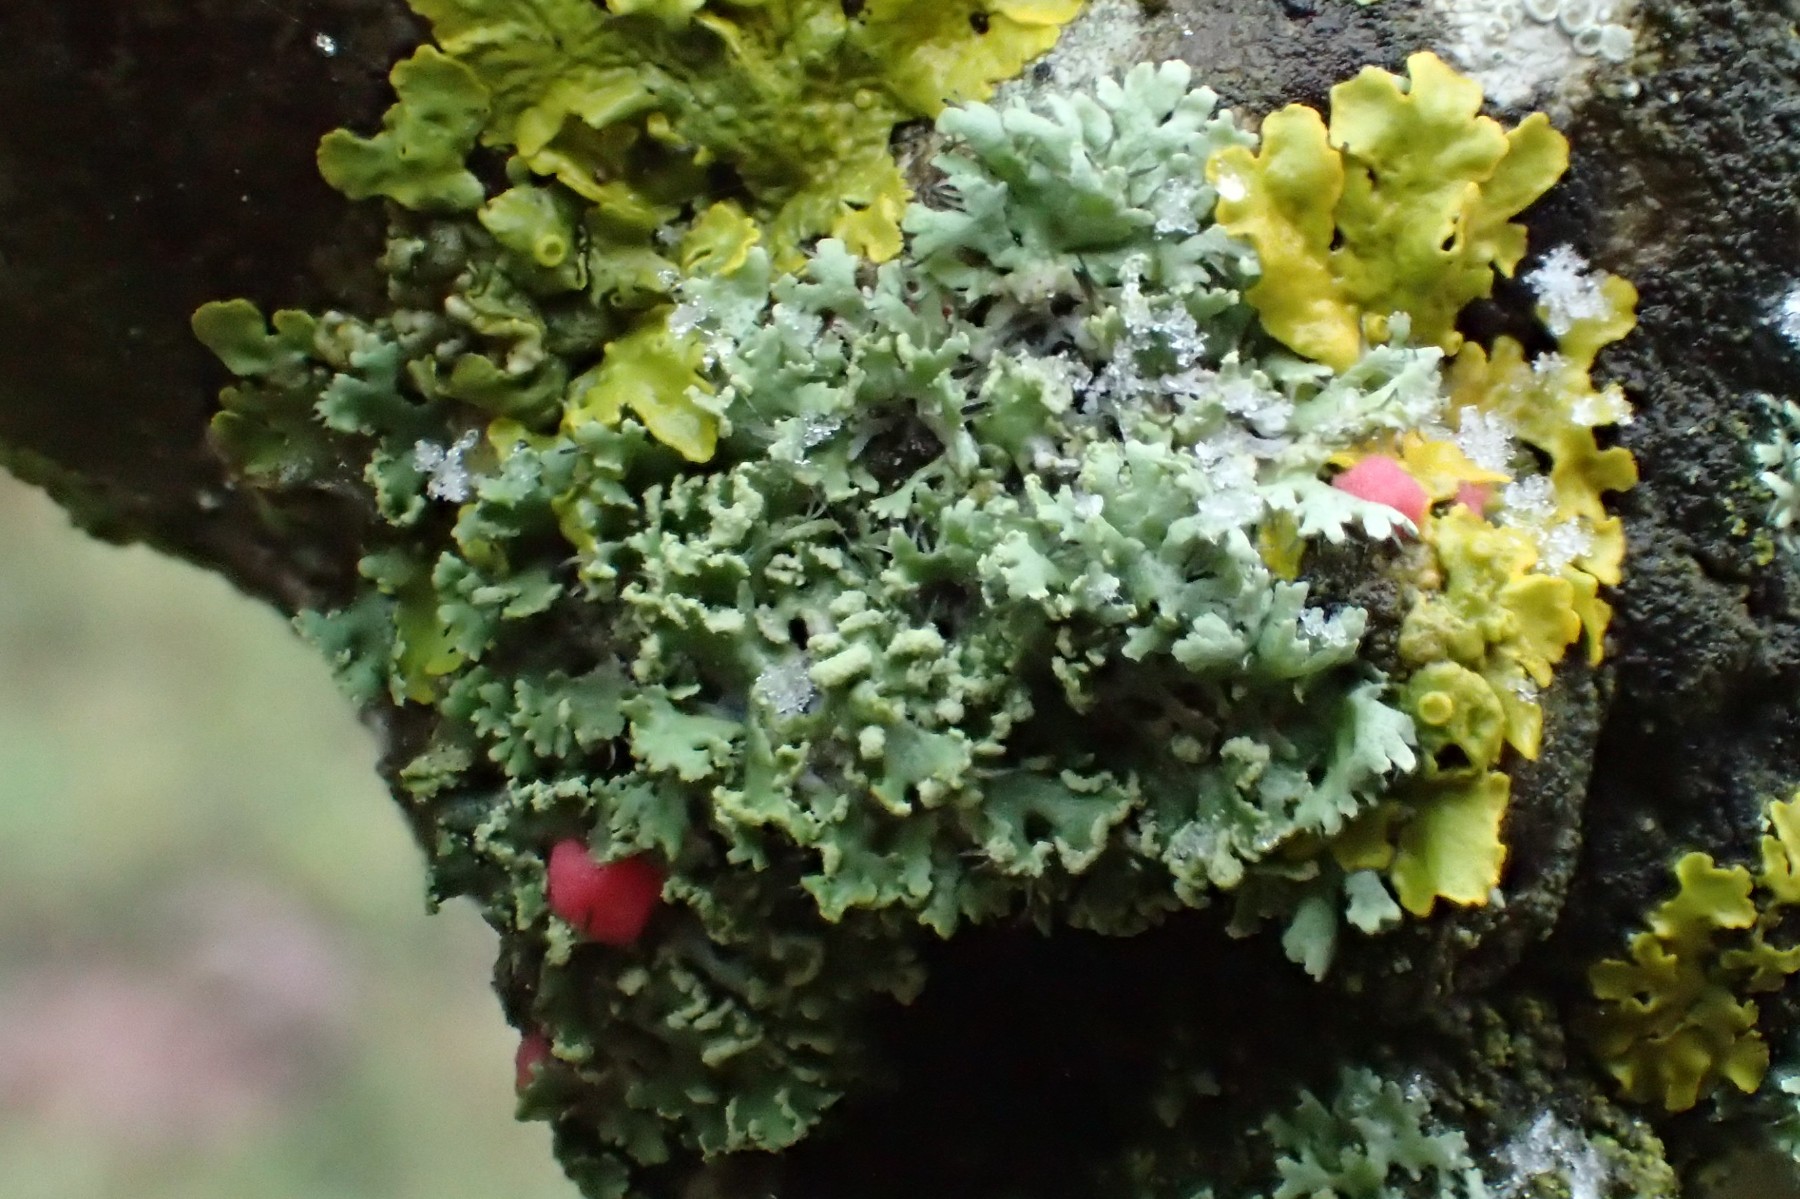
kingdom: Fungi
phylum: Ascomycota
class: Sordariomycetes
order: Hypocreales
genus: Illosporiopsis
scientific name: Illosporiopsis christiansenii
